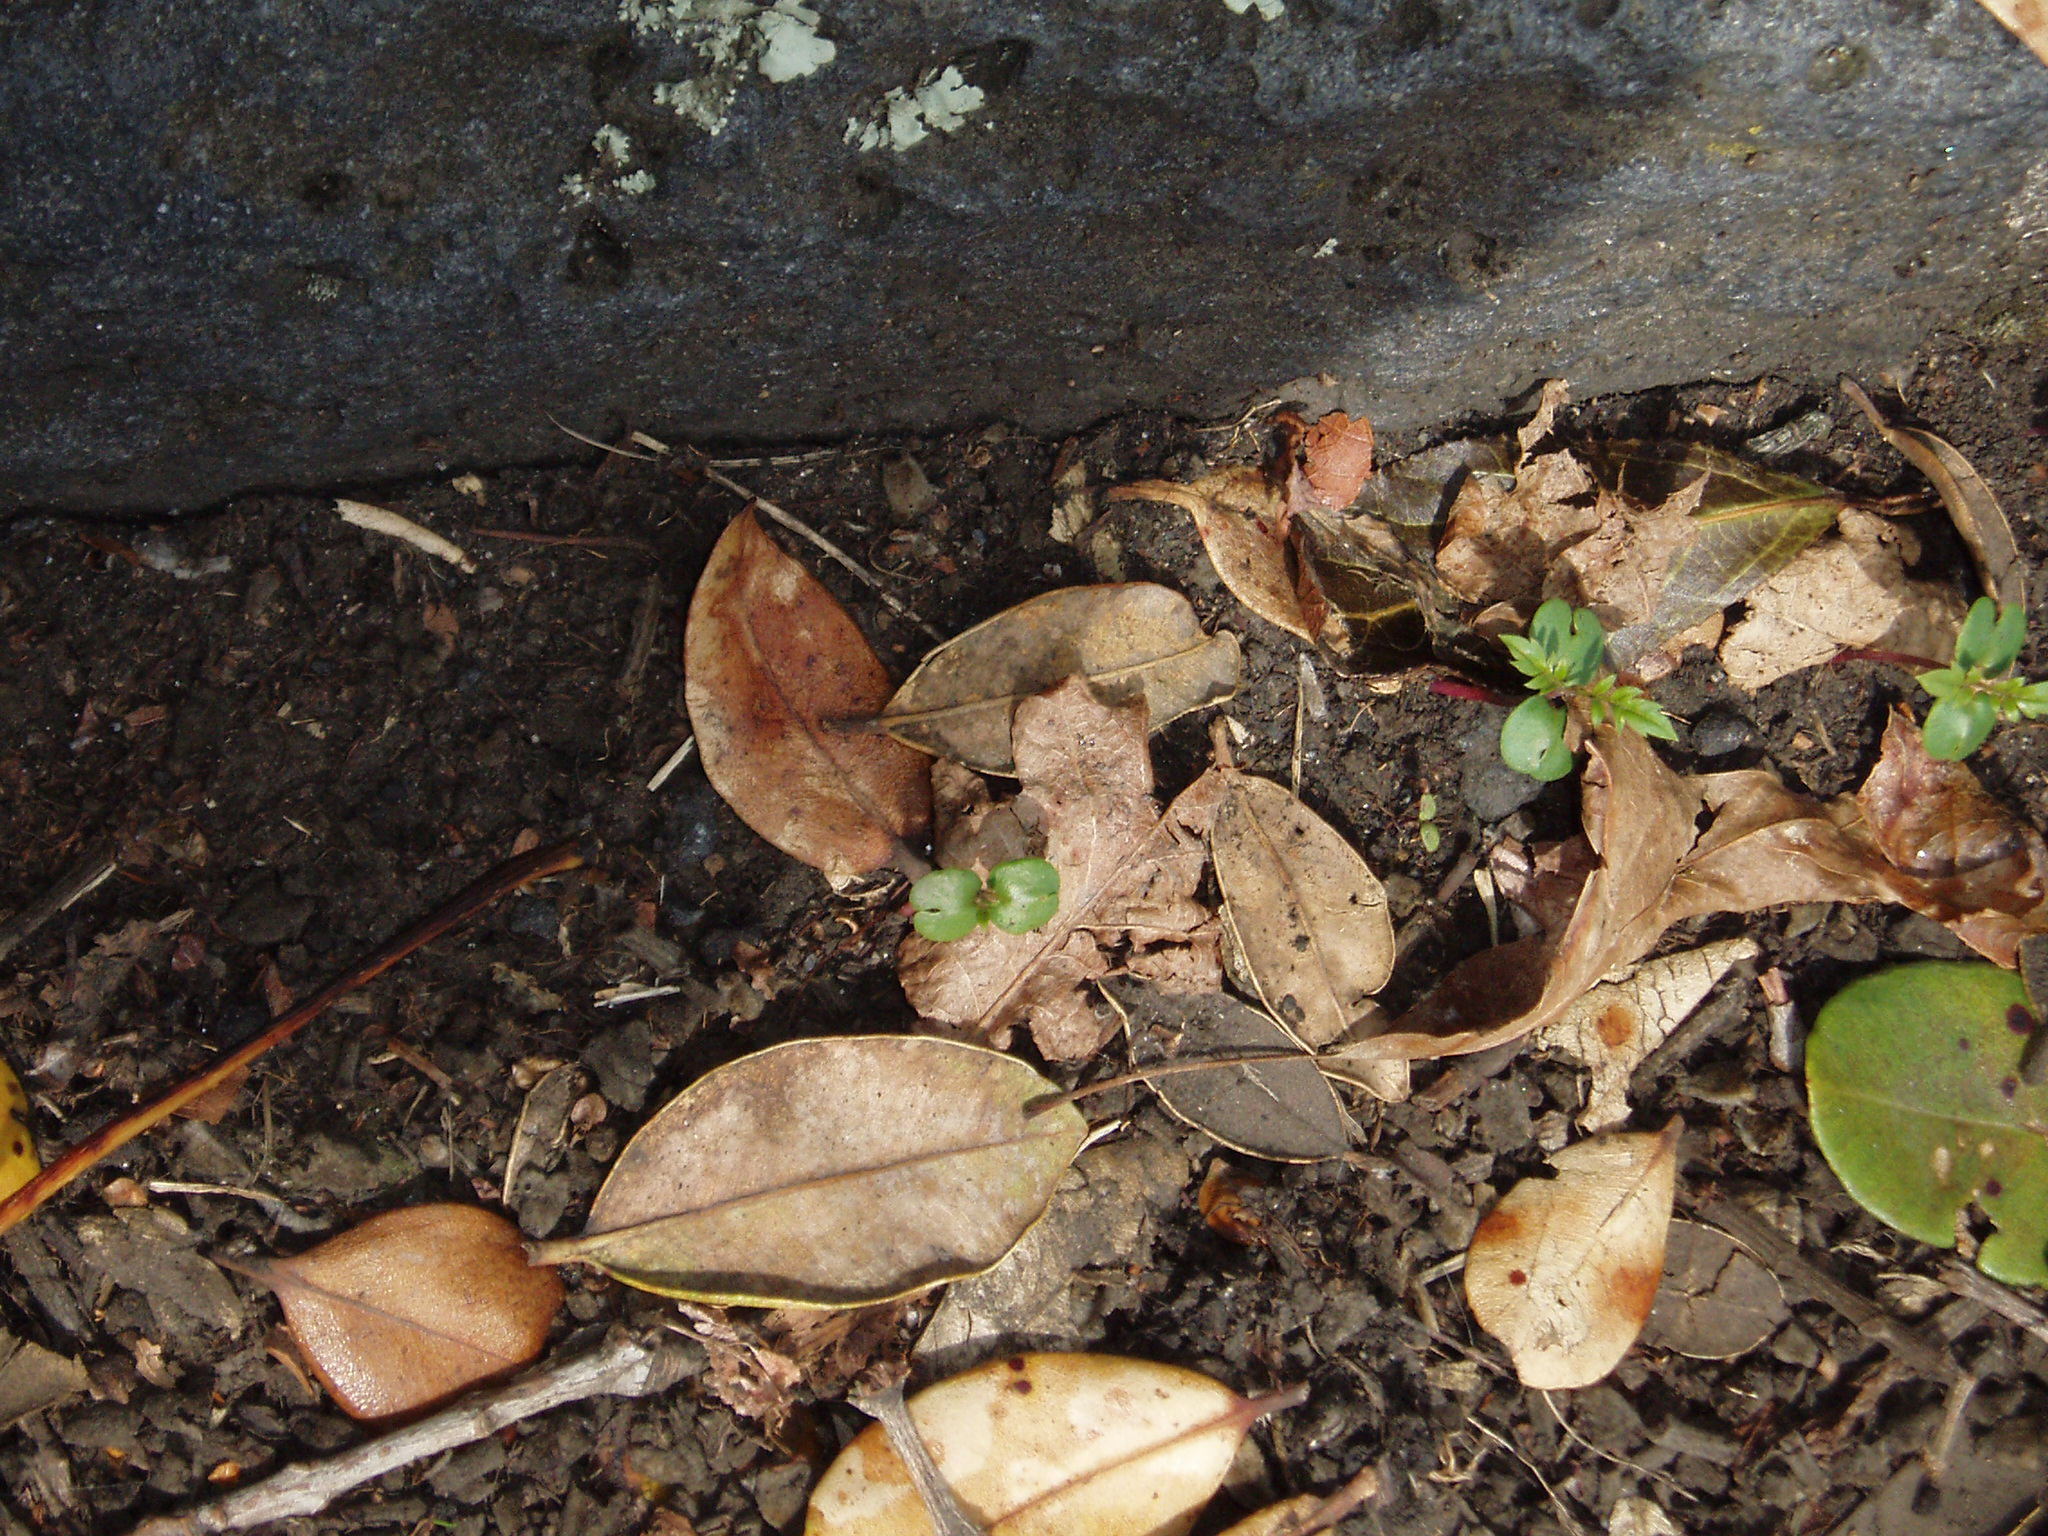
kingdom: Plantae
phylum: Tracheophyta
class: Magnoliopsida
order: Lamiales
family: Bignoniaceae
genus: Jacaranda
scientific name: Jacaranda mimosifolia
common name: Black poui
